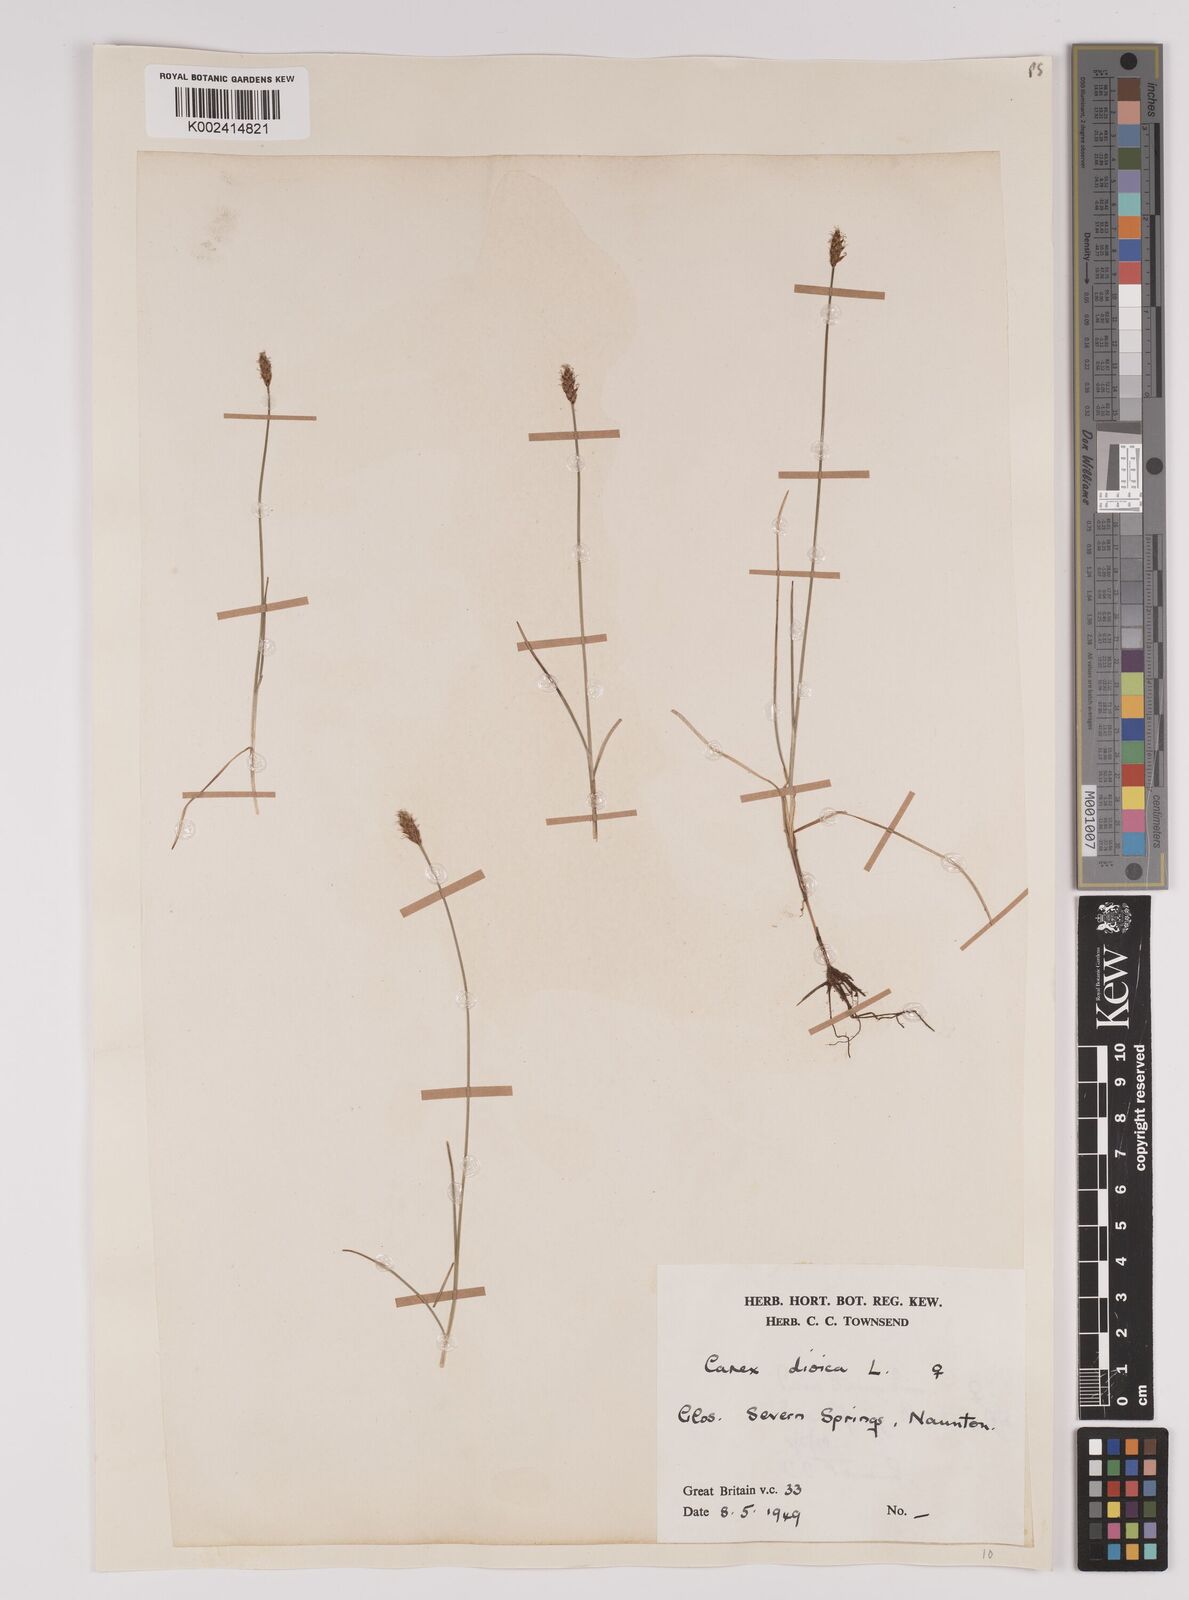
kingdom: Plantae
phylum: Tracheophyta
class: Liliopsida
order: Poales
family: Cyperaceae
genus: Carex
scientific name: Carex dioica
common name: Dioecious sedge
